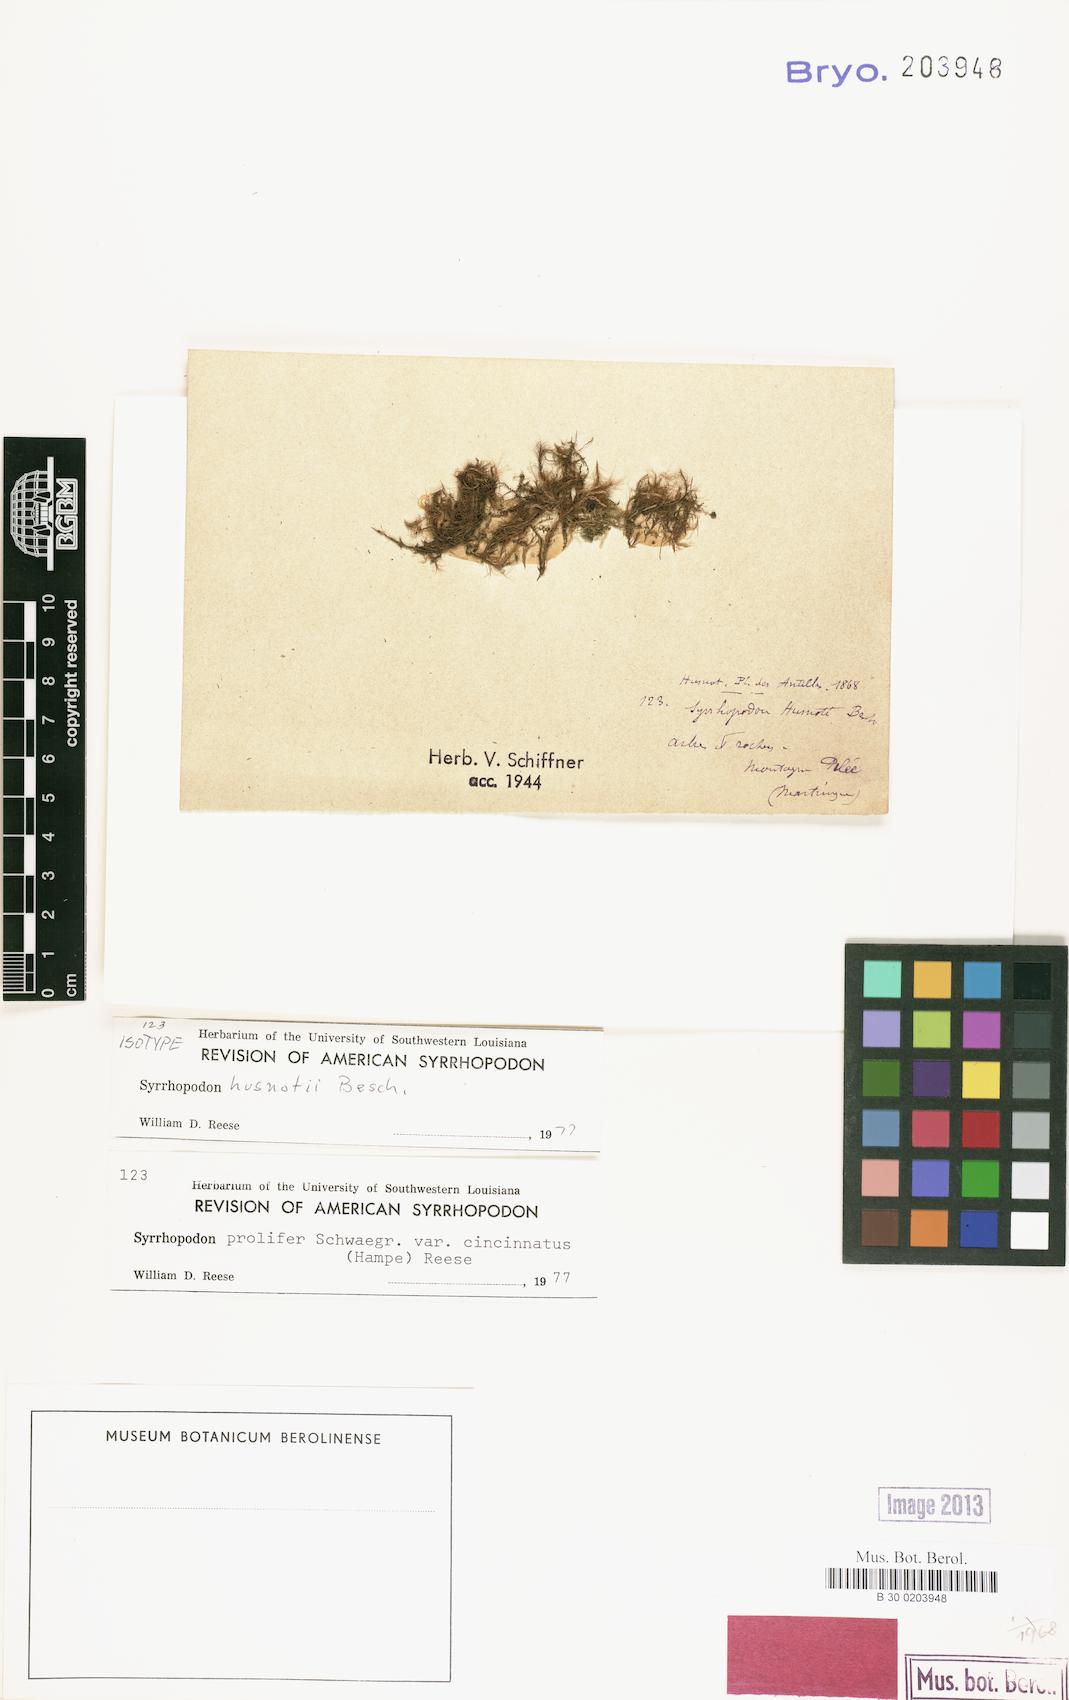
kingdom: Plantae
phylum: Bryophyta
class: Bryopsida
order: Dicranales
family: Calymperaceae
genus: Syrrhopodon
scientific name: Syrrhopodon prolifer
